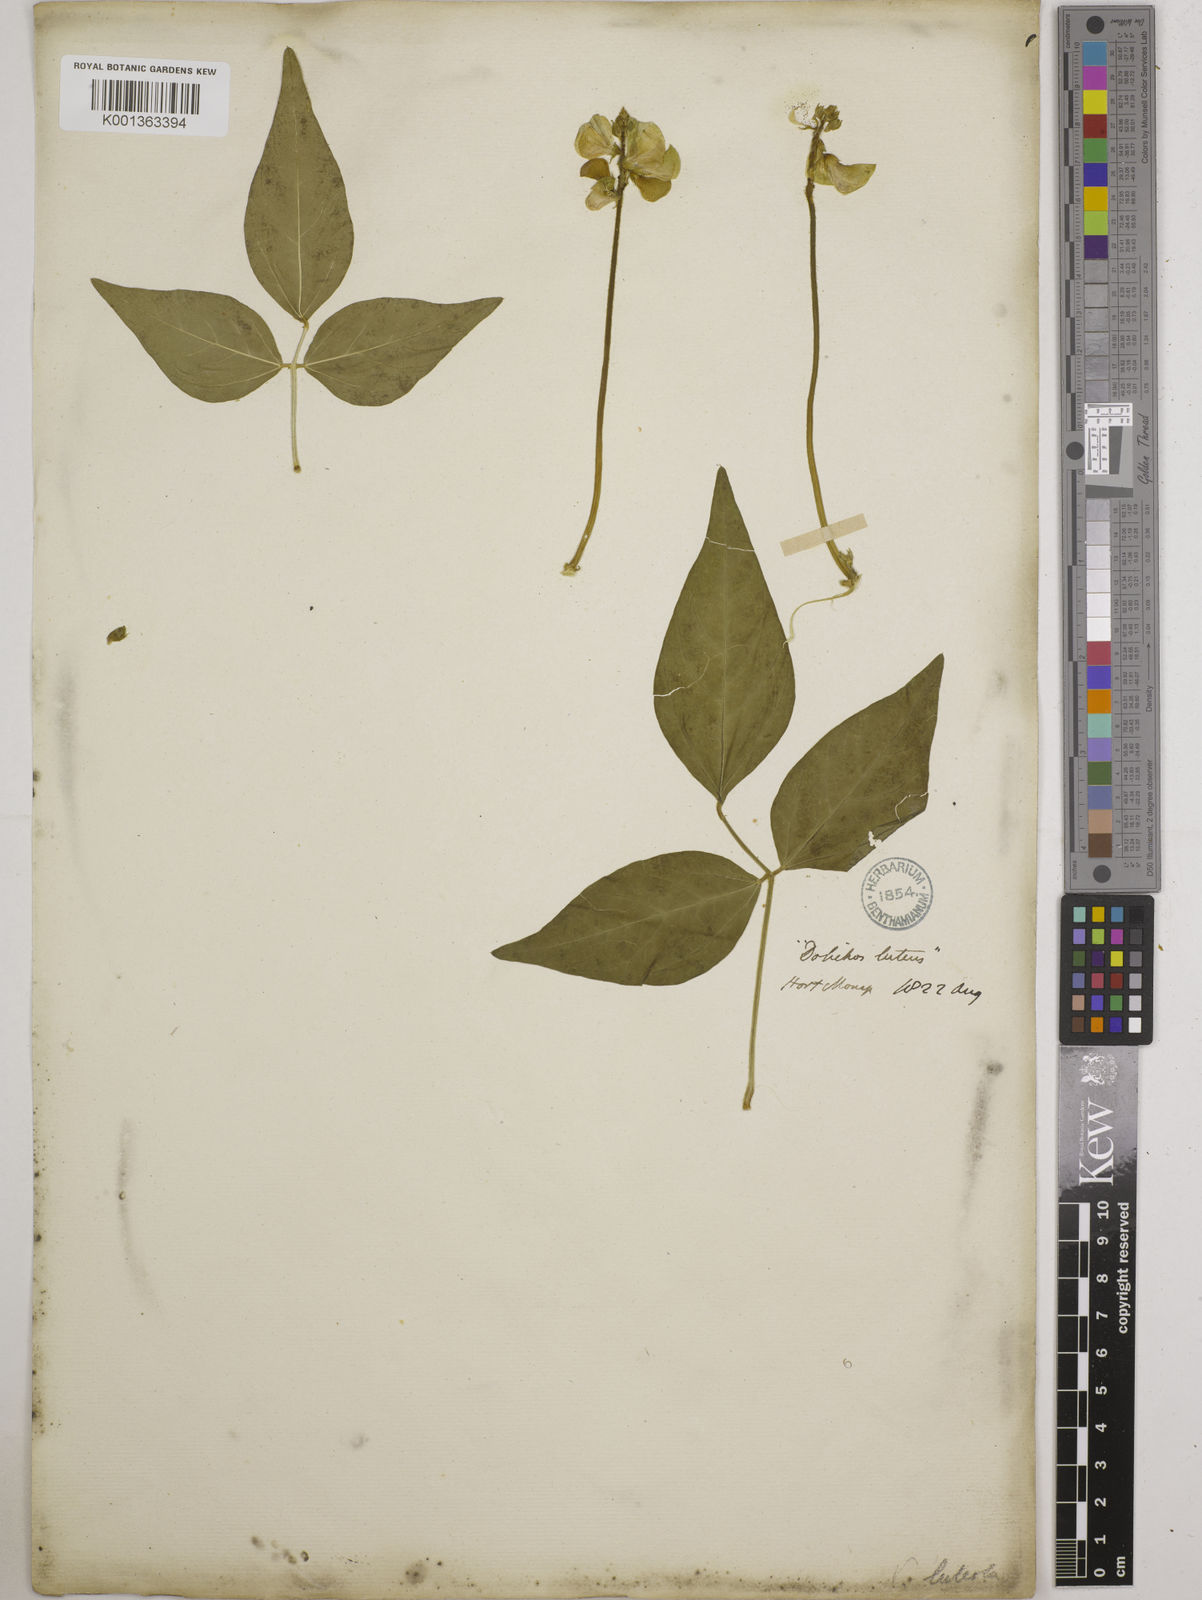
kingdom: Plantae
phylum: Tracheophyta
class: Magnoliopsida
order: Fabales
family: Fabaceae
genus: Vigna
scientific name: Vigna luteola
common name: Hairypod cowpea
